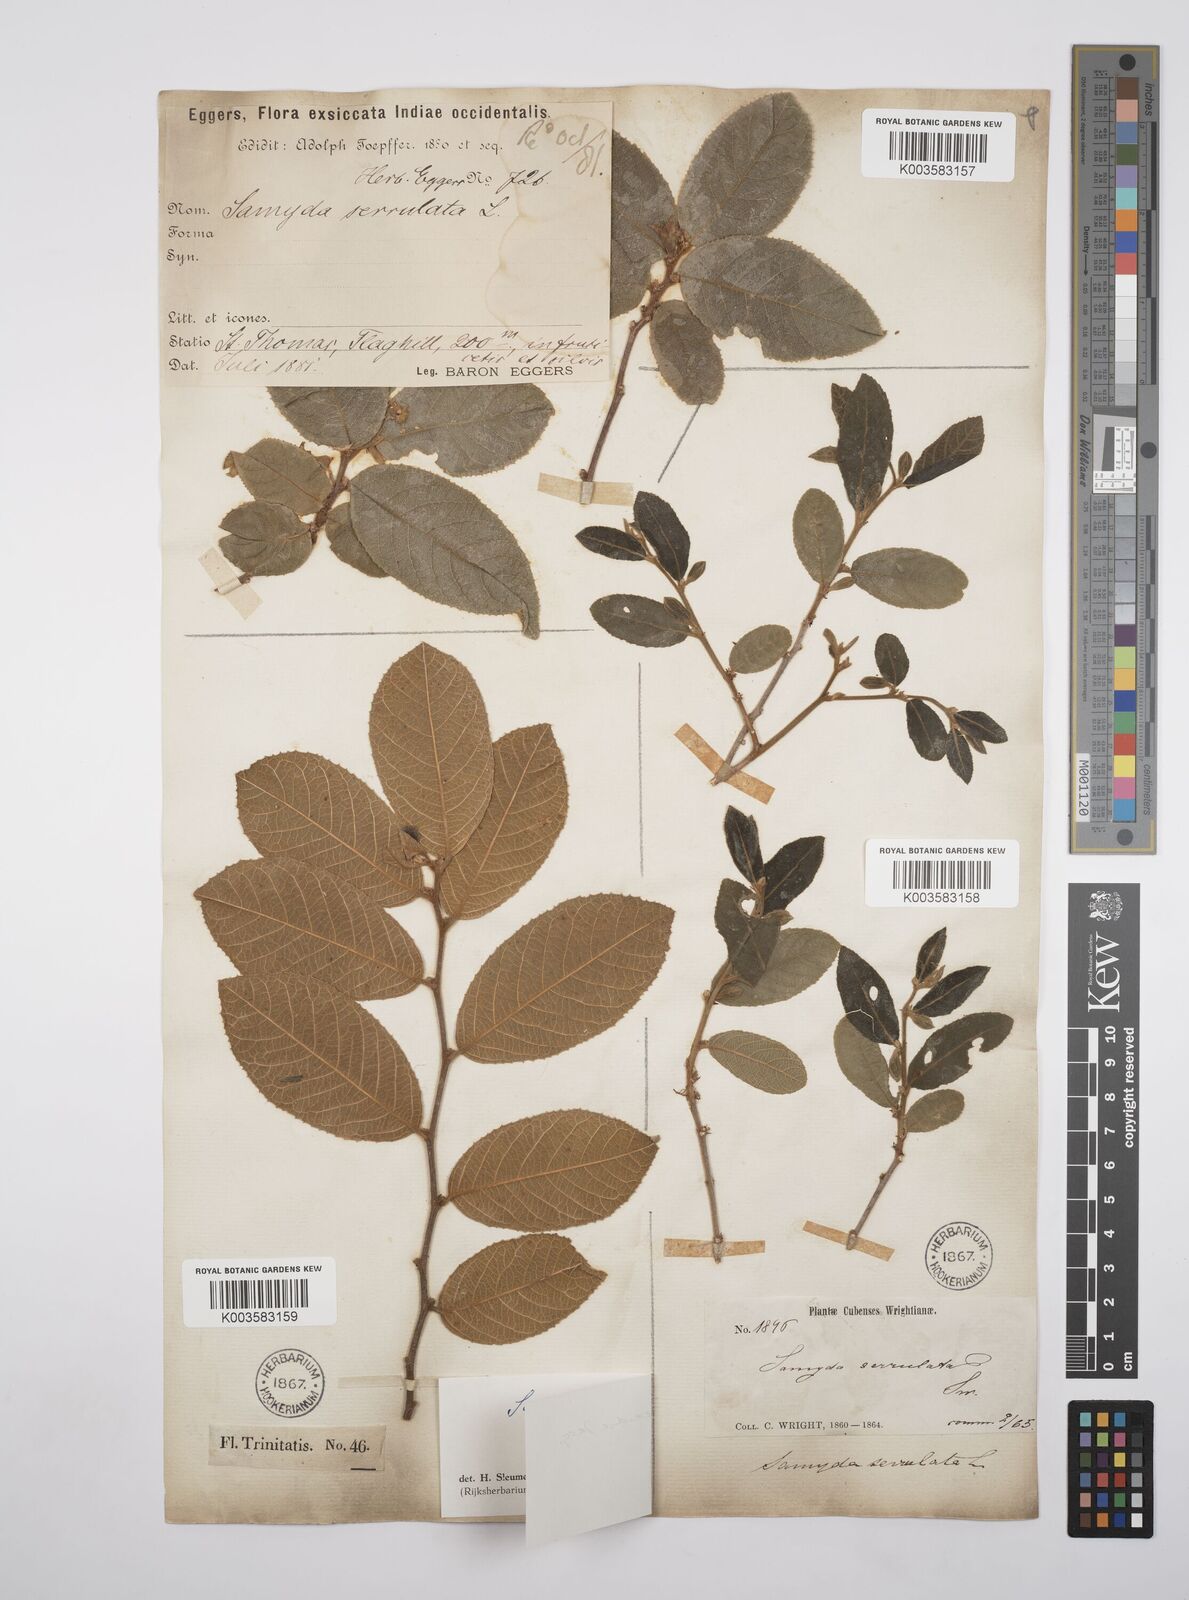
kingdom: Plantae
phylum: Tracheophyta
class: Magnoliopsida
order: Malpighiales
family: Salicaceae
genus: Casearia
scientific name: Casearia dodecandra
